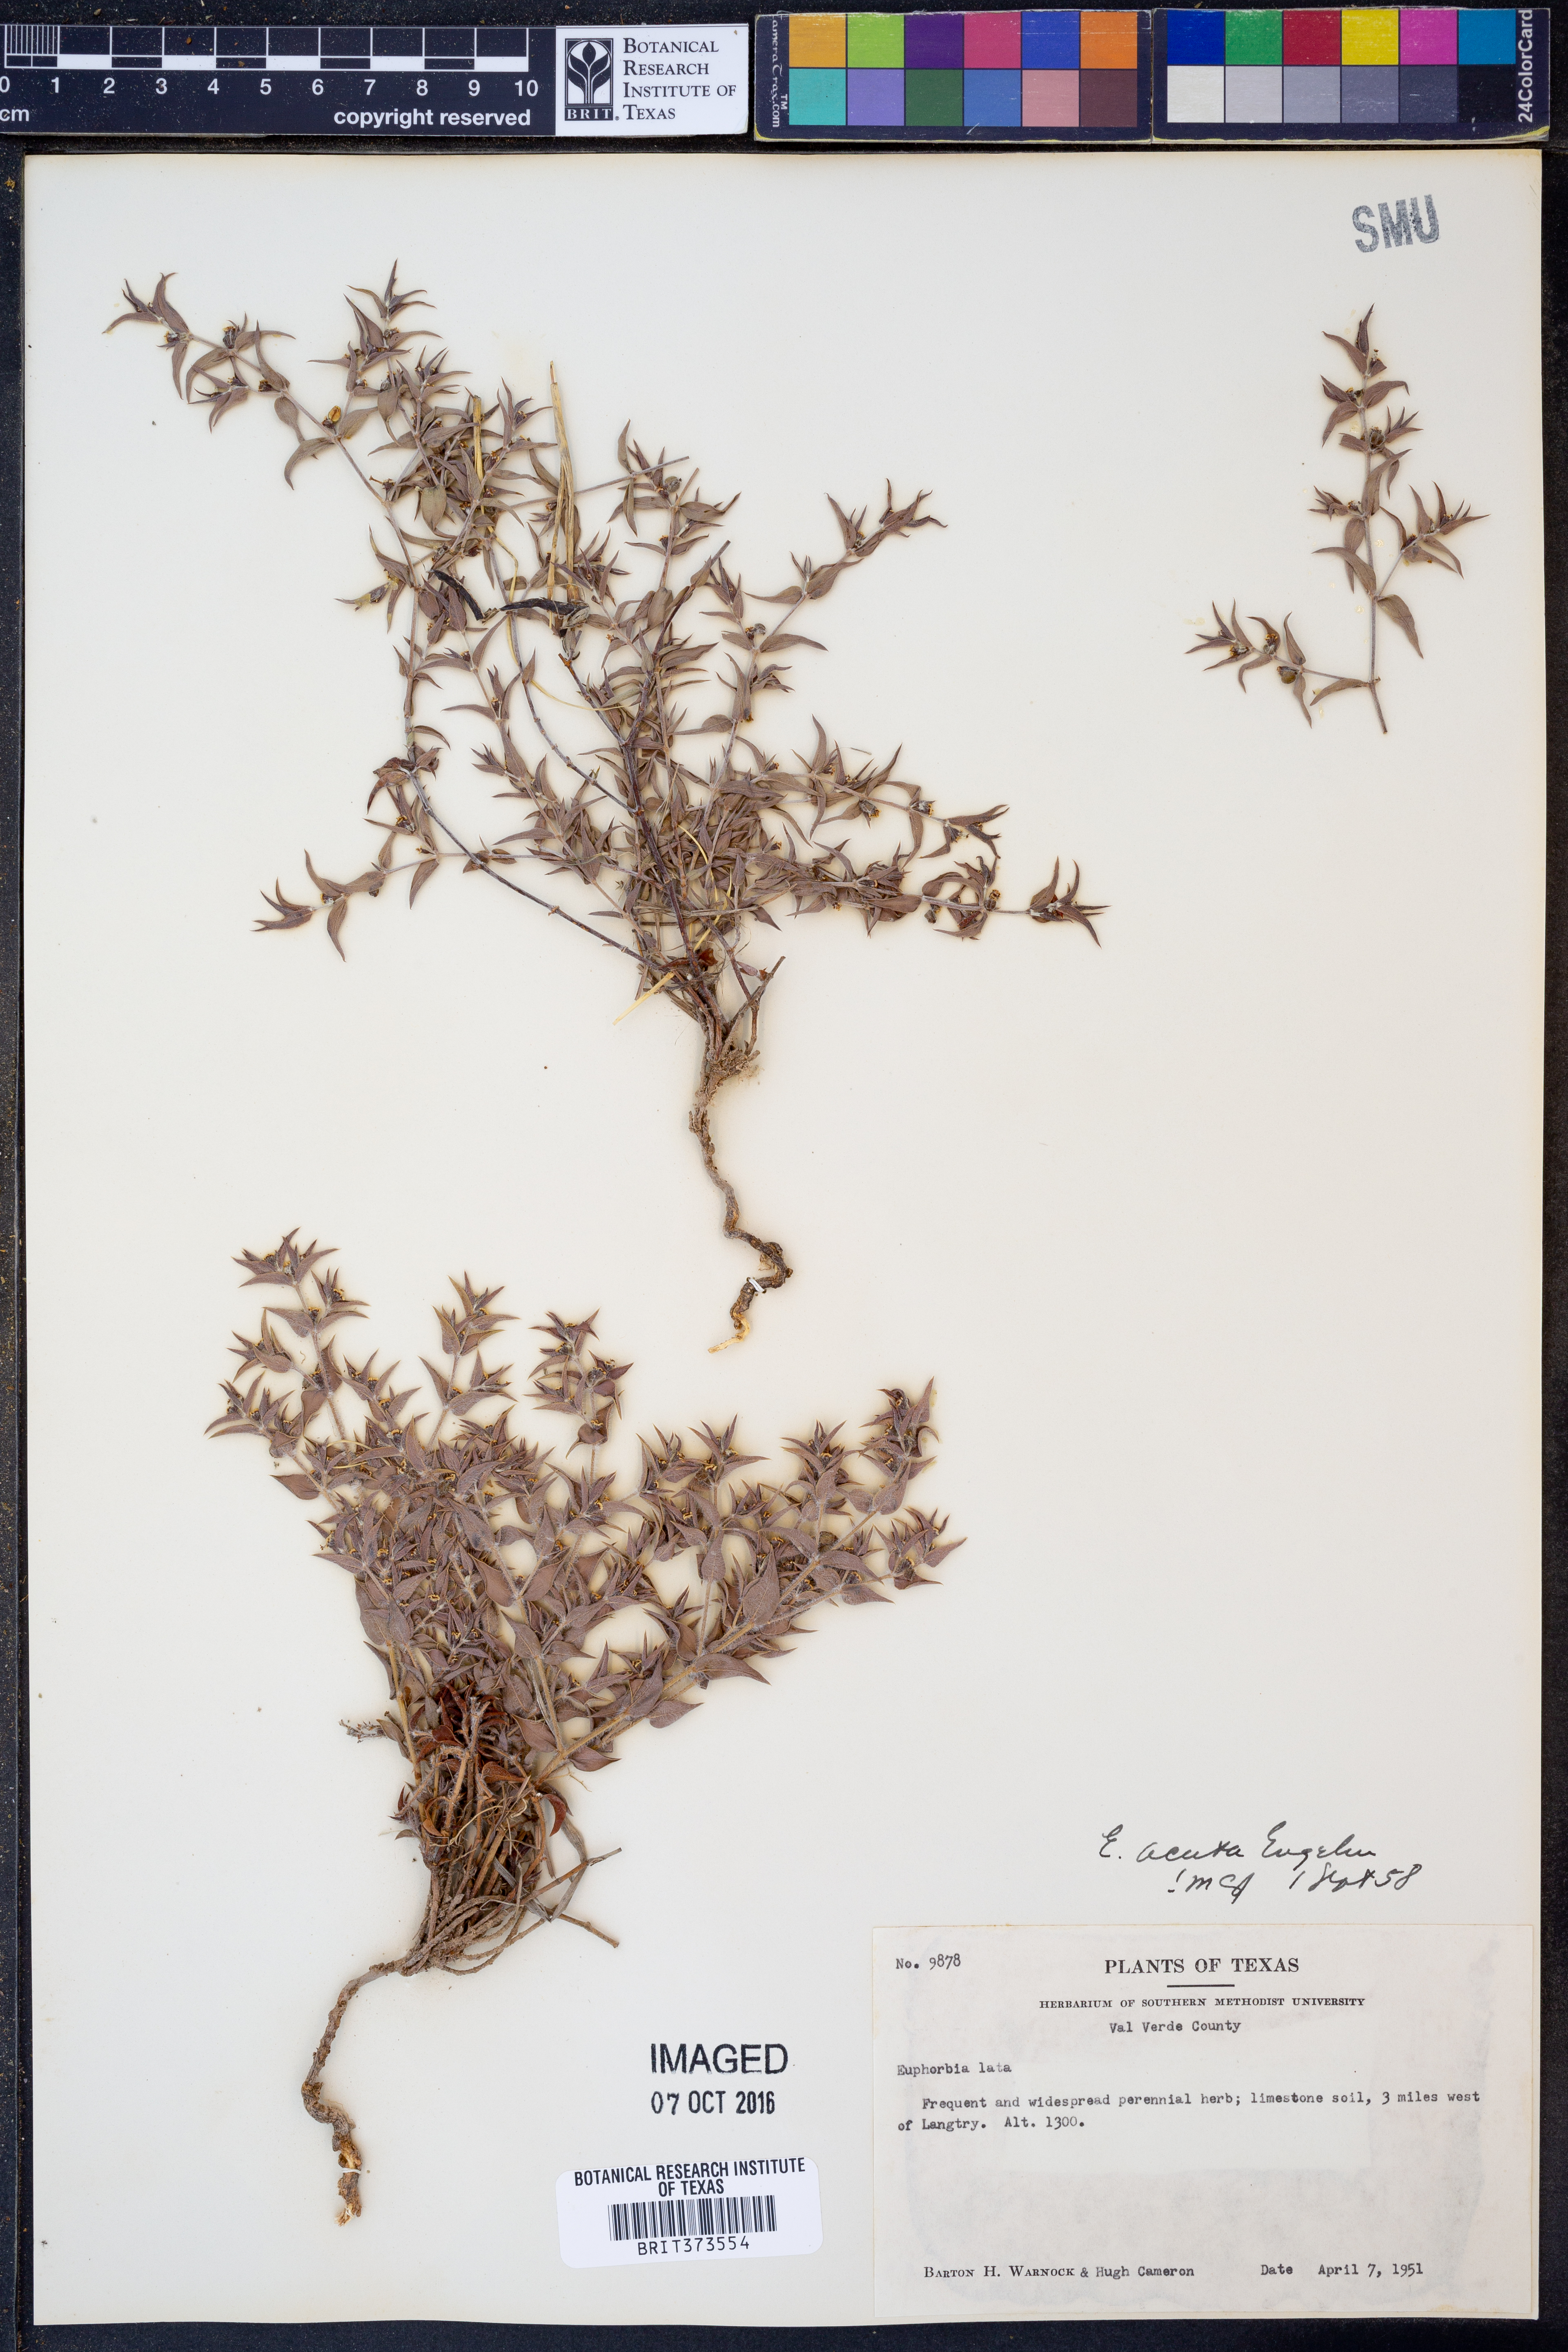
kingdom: Plantae
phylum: Tracheophyta
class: Magnoliopsida
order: Malpighiales
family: Euphorbiaceae
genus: Euphorbia
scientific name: Euphorbia acuta
